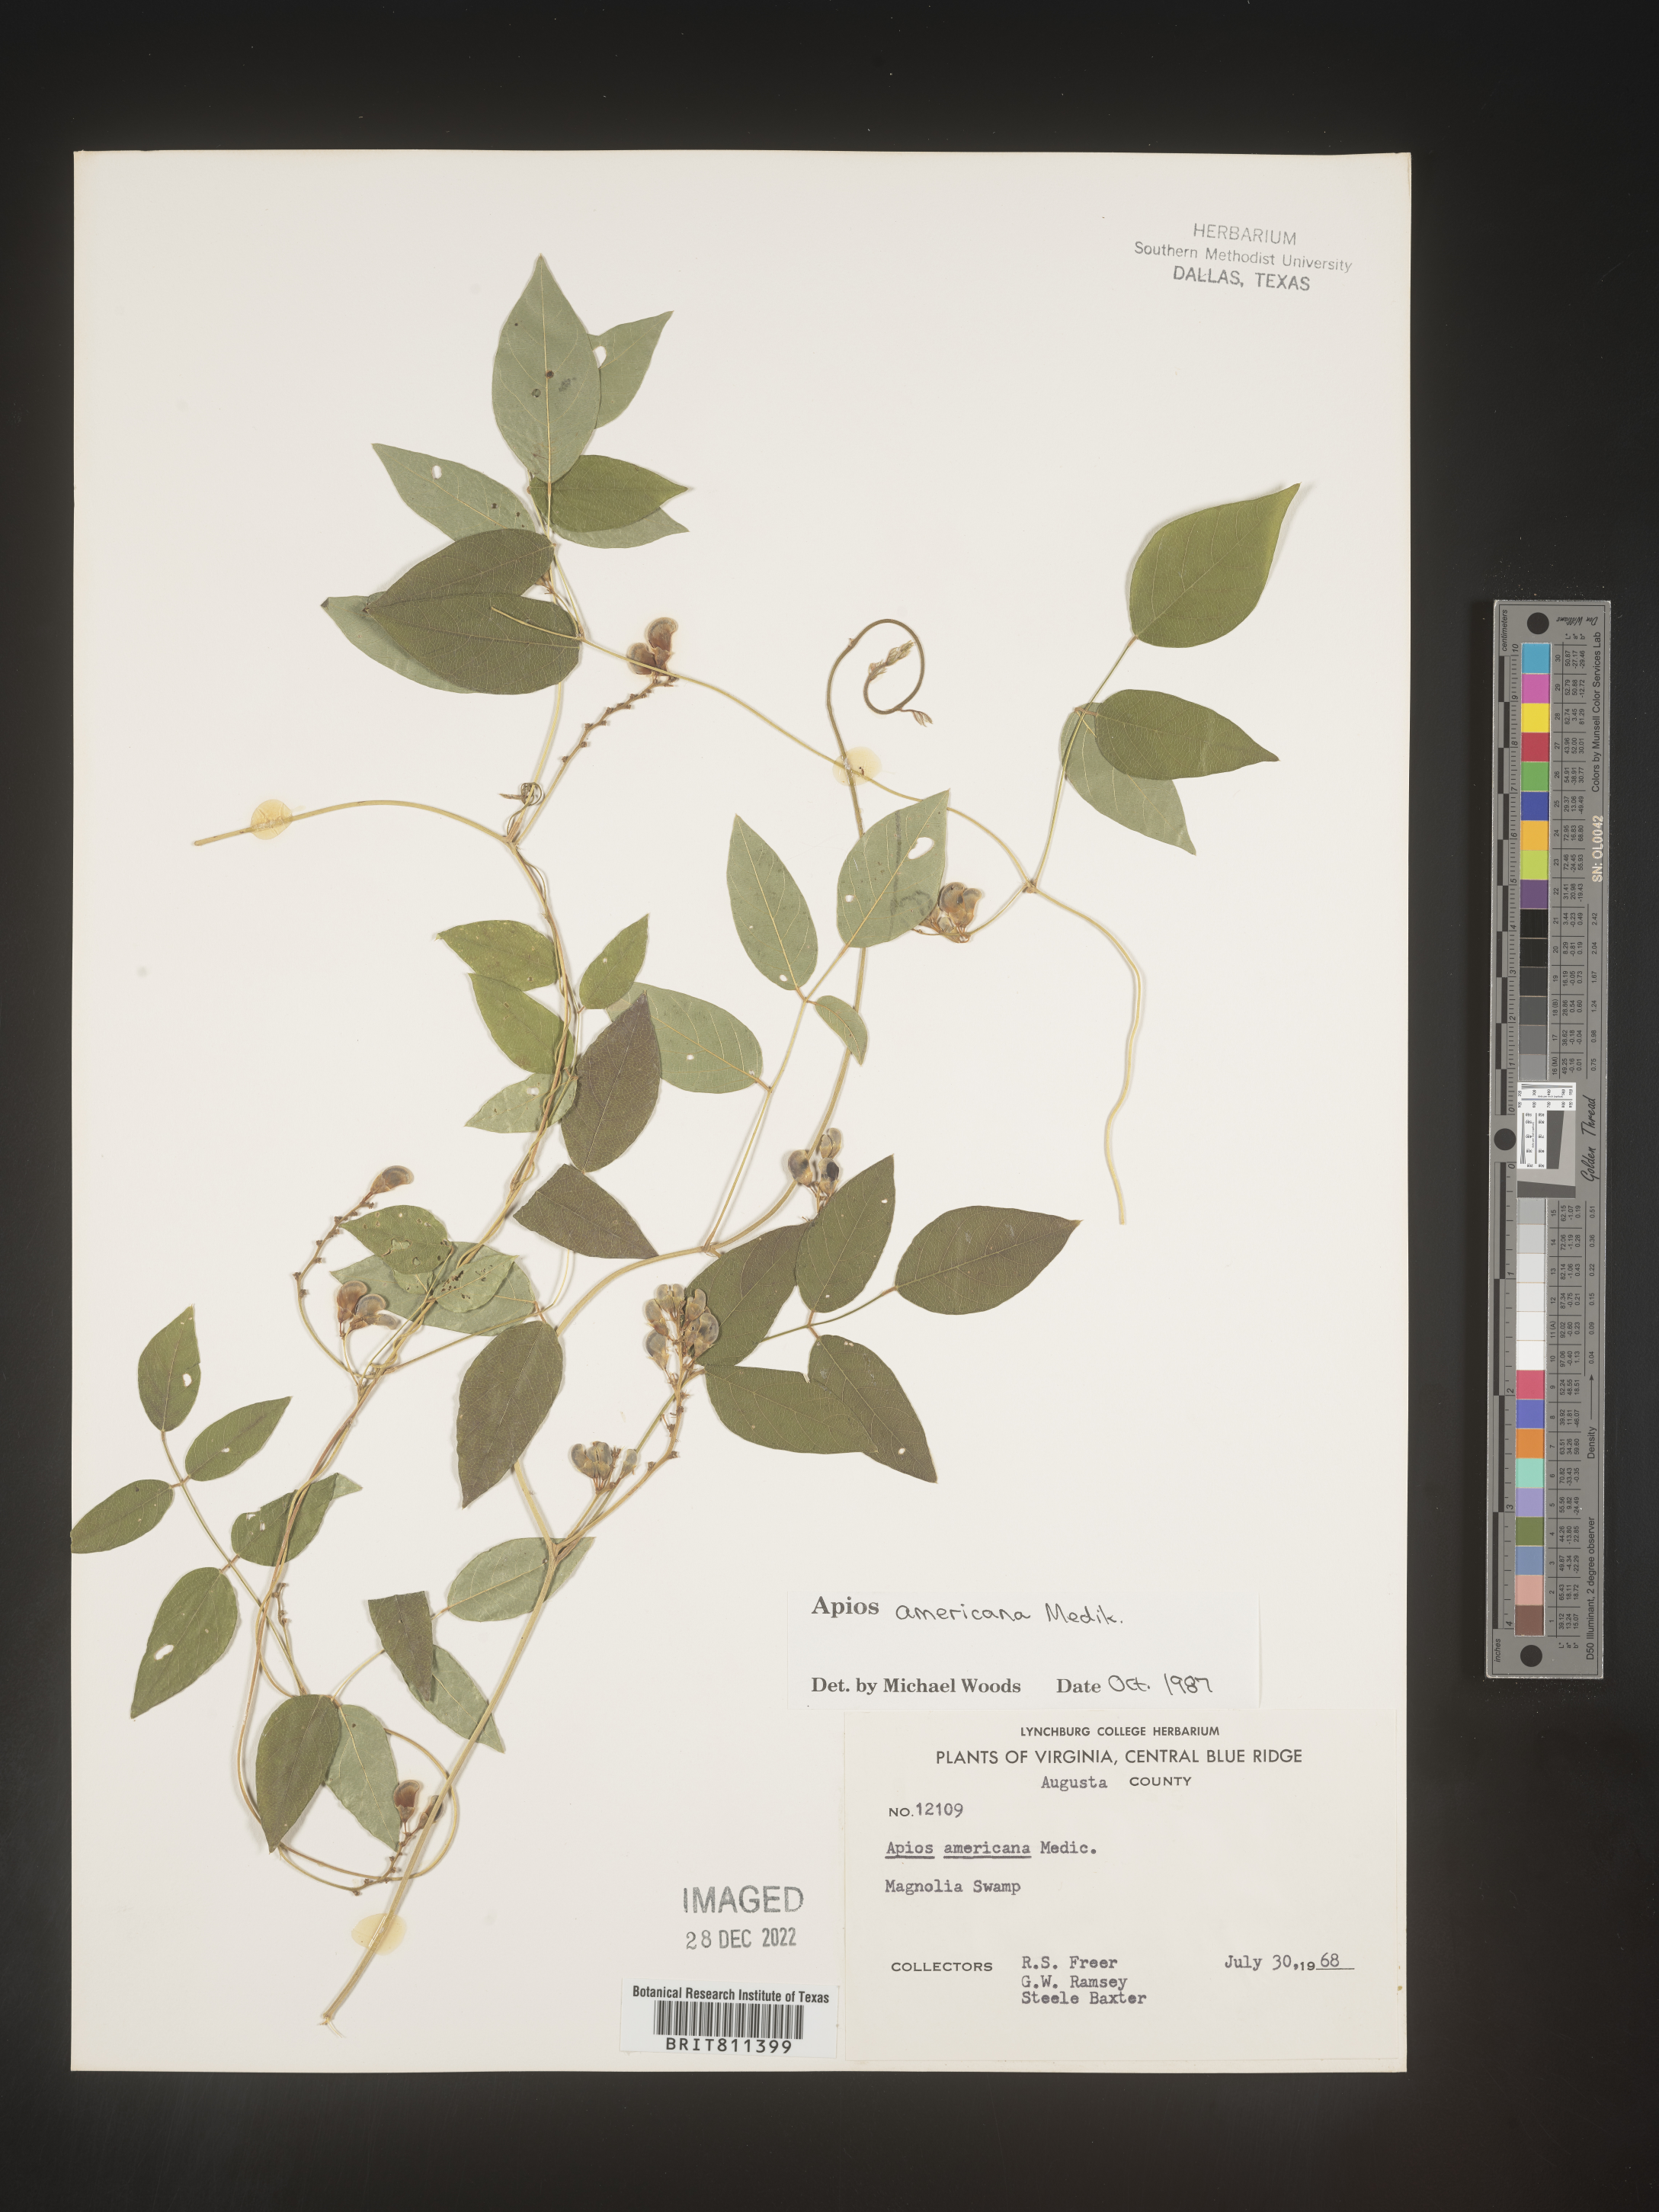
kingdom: Plantae
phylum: Tracheophyta
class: Magnoliopsida
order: Fabales
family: Fabaceae
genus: Apios
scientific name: Apios americana
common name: American potato-bean
